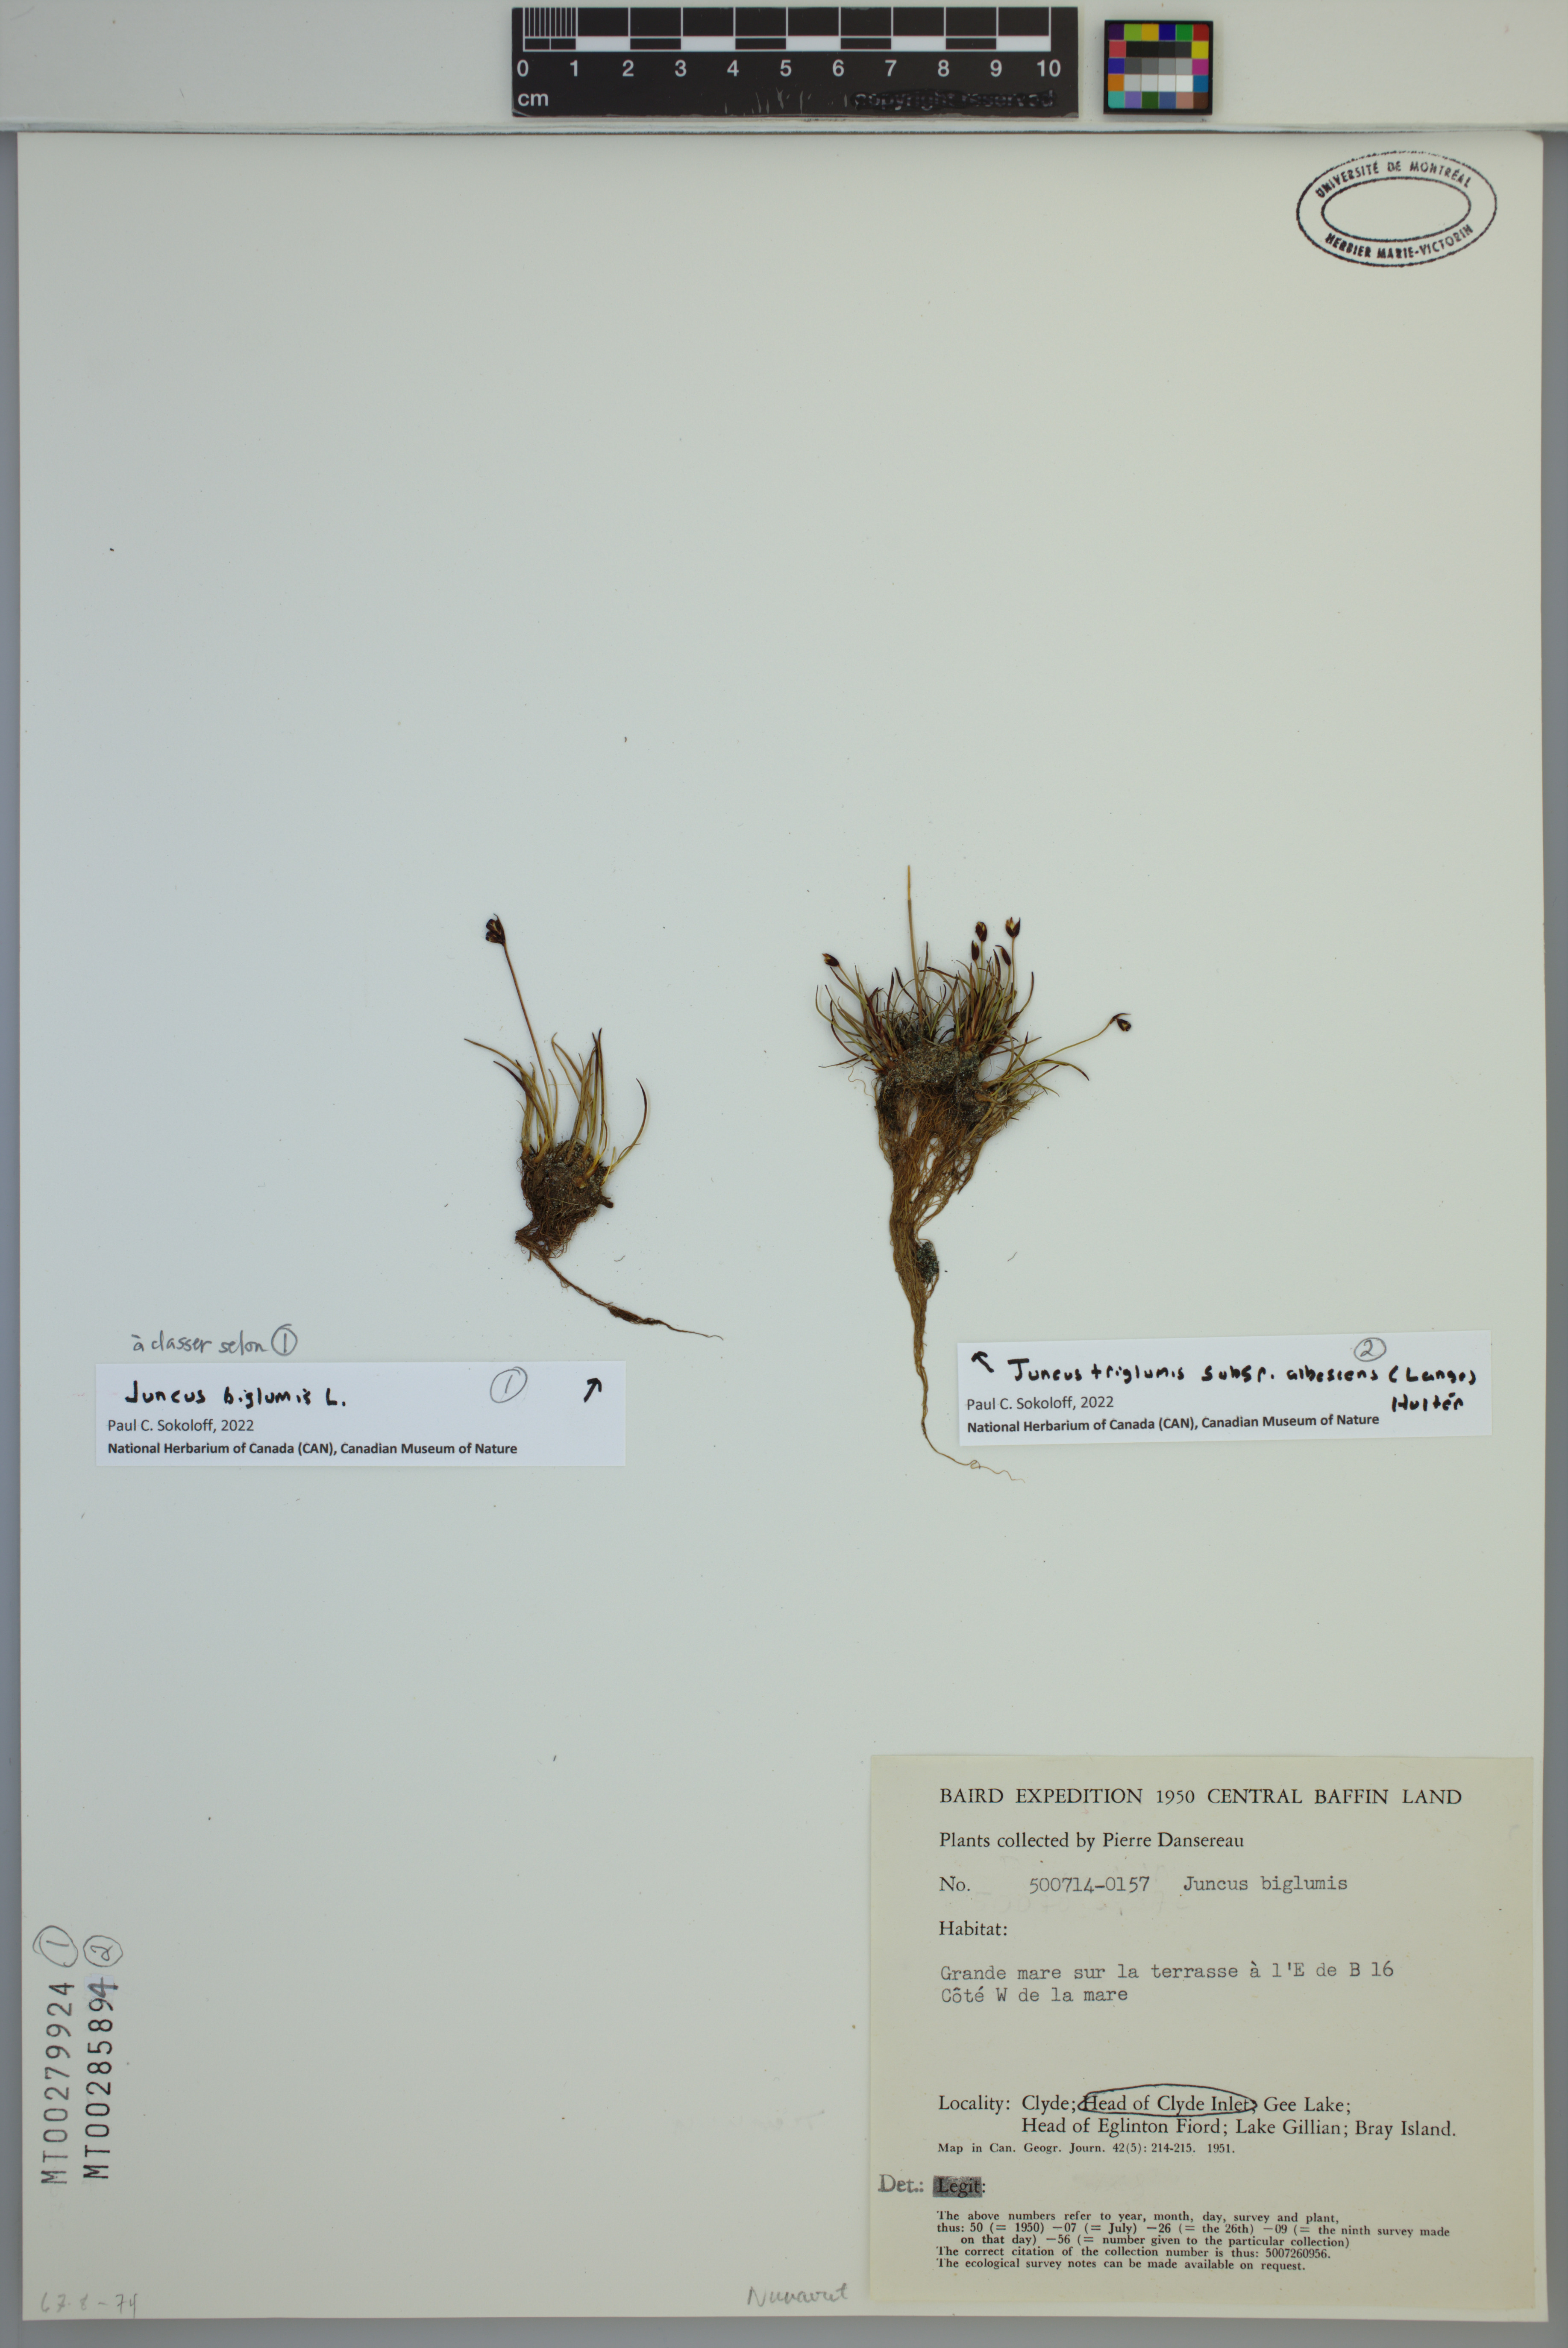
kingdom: Plantae
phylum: Tracheophyta
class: Liliopsida
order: Poales
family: Juncaceae
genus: Juncus
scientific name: Juncus albescens
